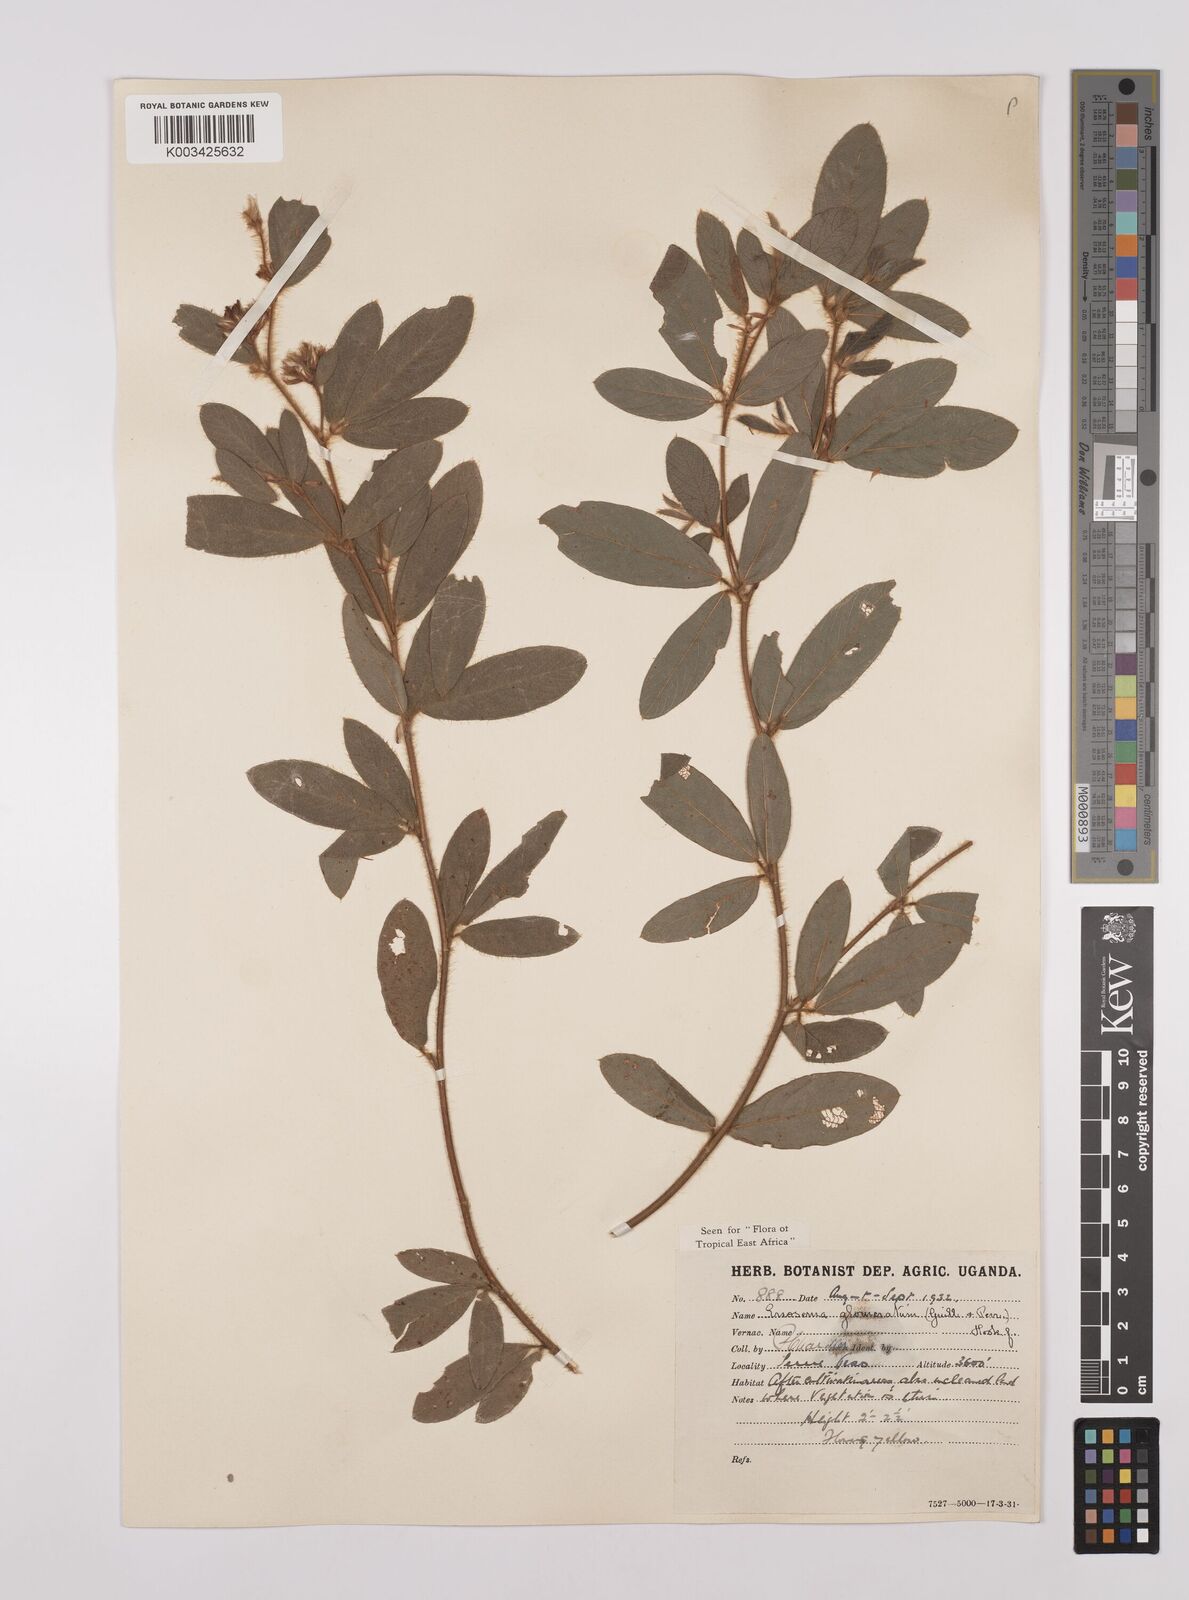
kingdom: Plantae
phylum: Tracheophyta
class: Magnoliopsida
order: Fabales
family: Fabaceae
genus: Eriosema
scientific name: Eriosema glomeratum
